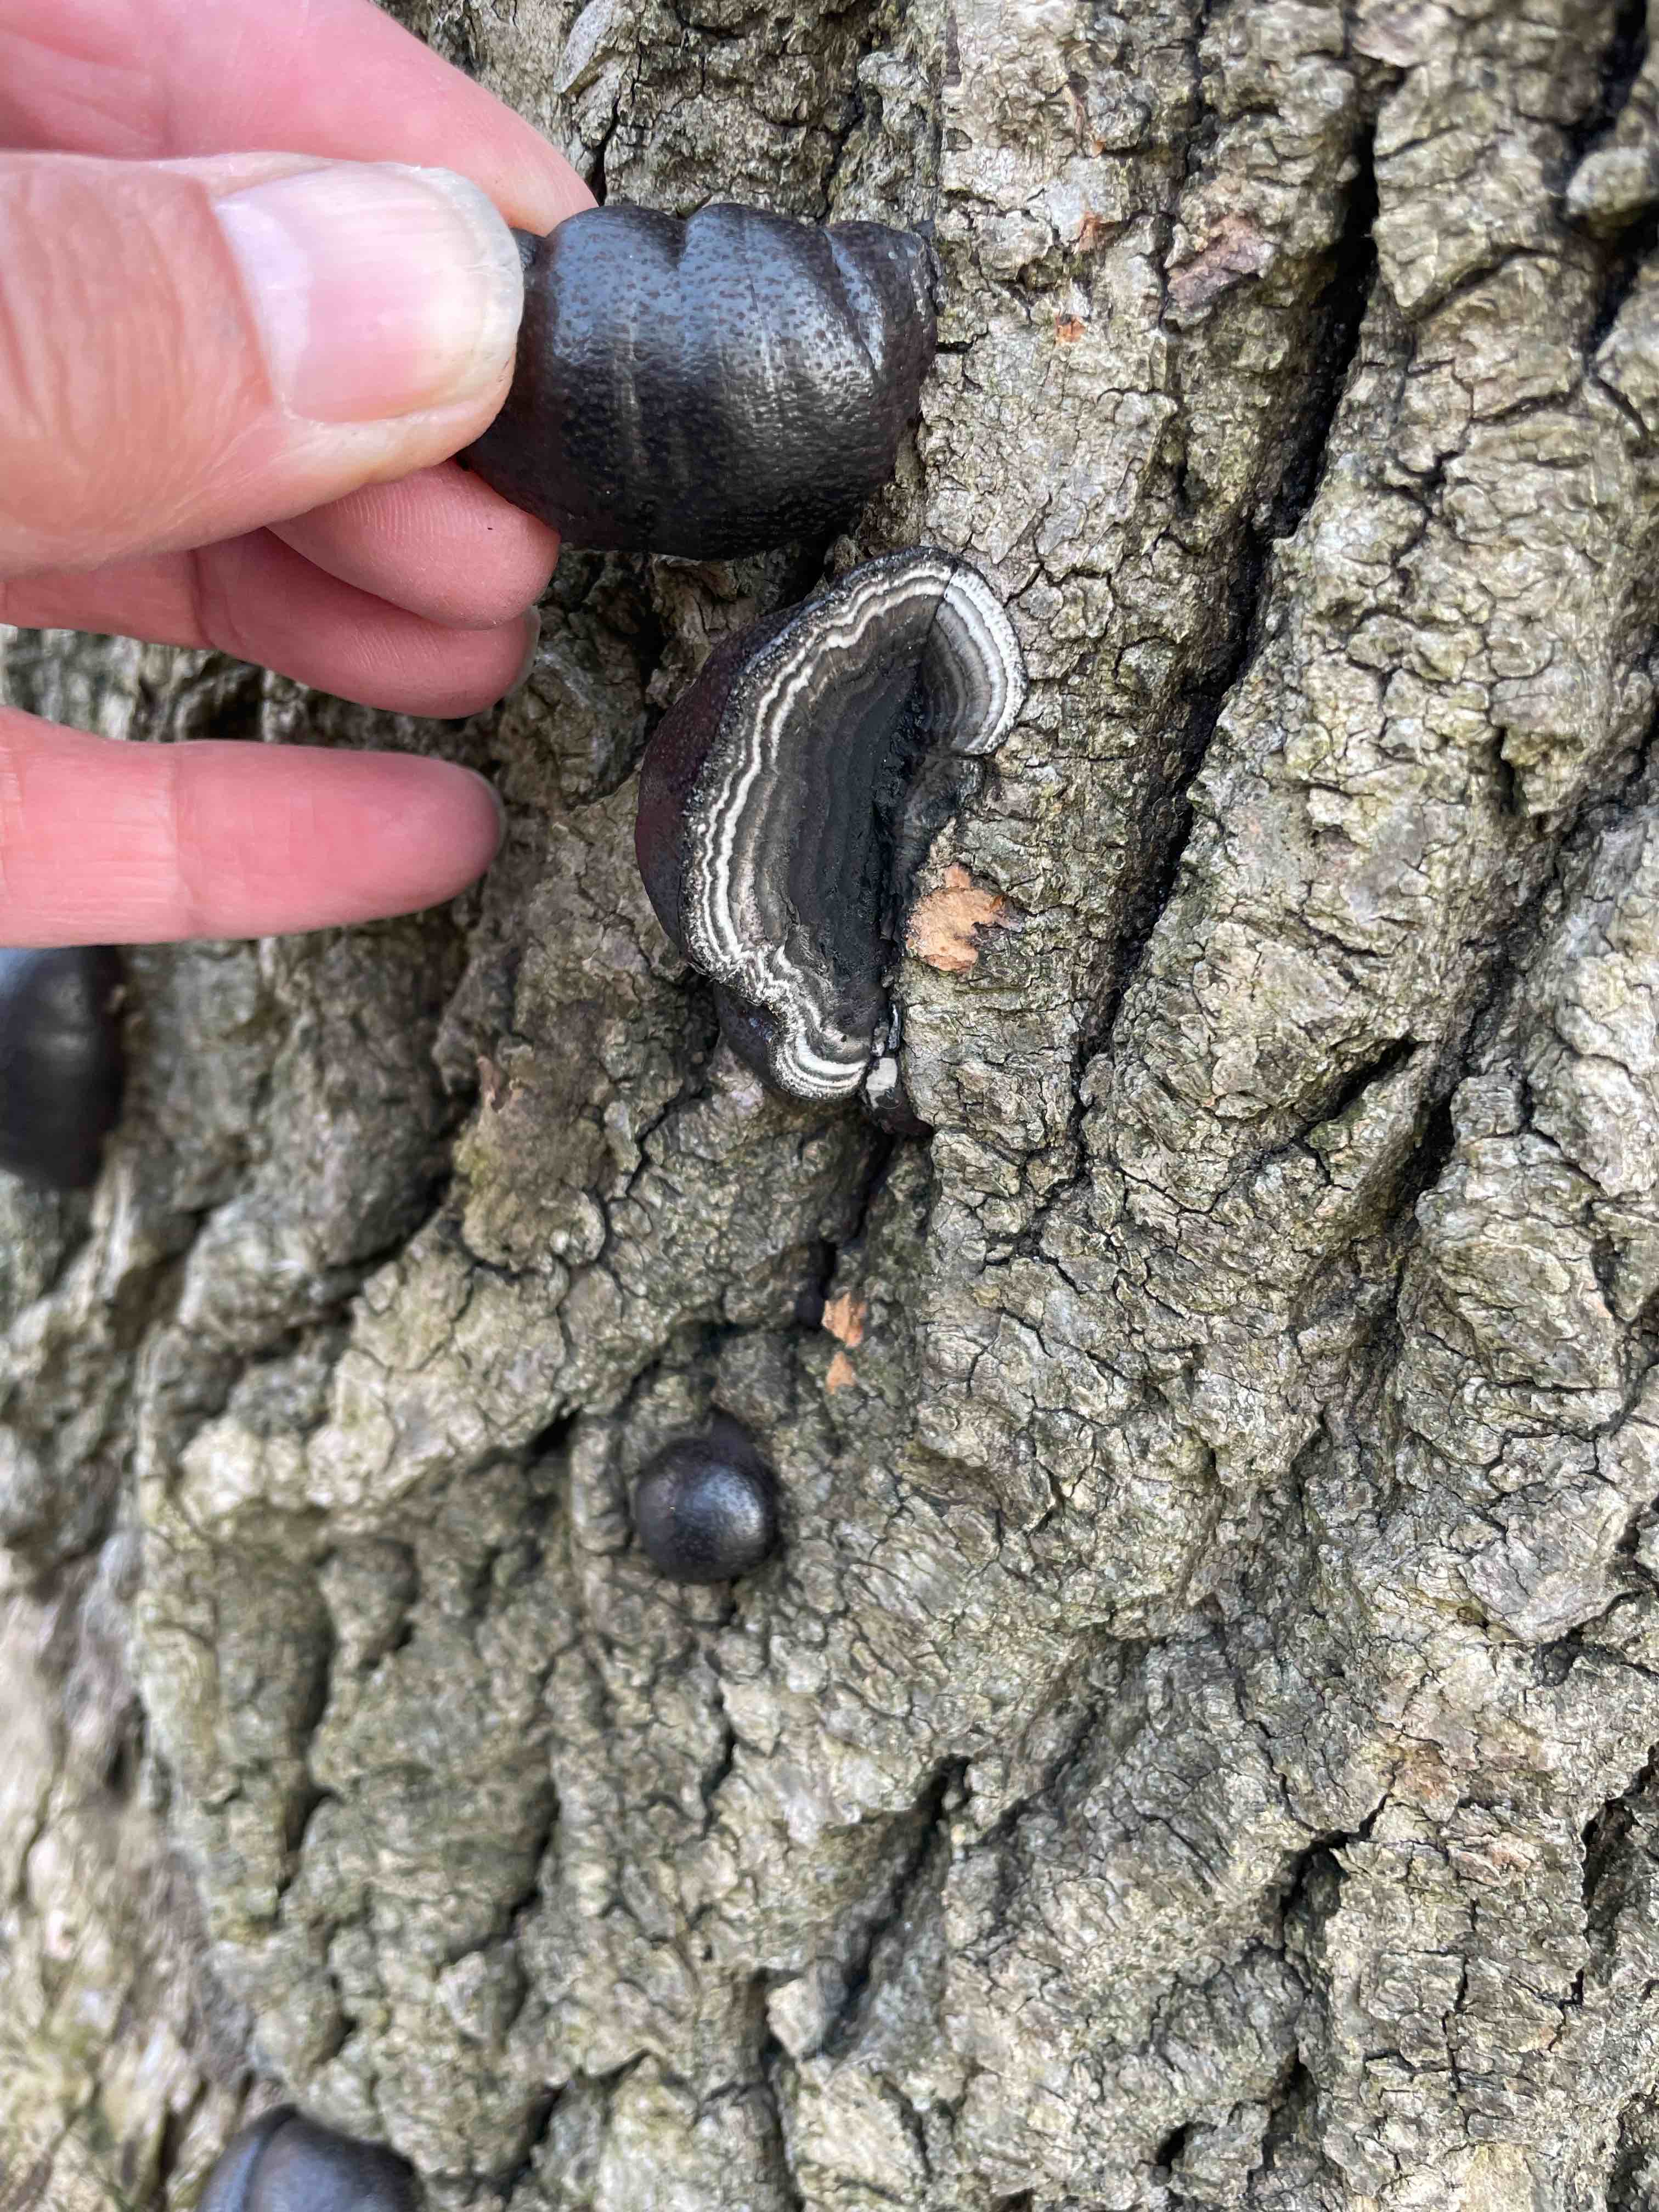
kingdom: Fungi
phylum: Ascomycota
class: Sordariomycetes
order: Xylariales
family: Hypoxylaceae
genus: Daldinia
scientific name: Daldinia concentrica
